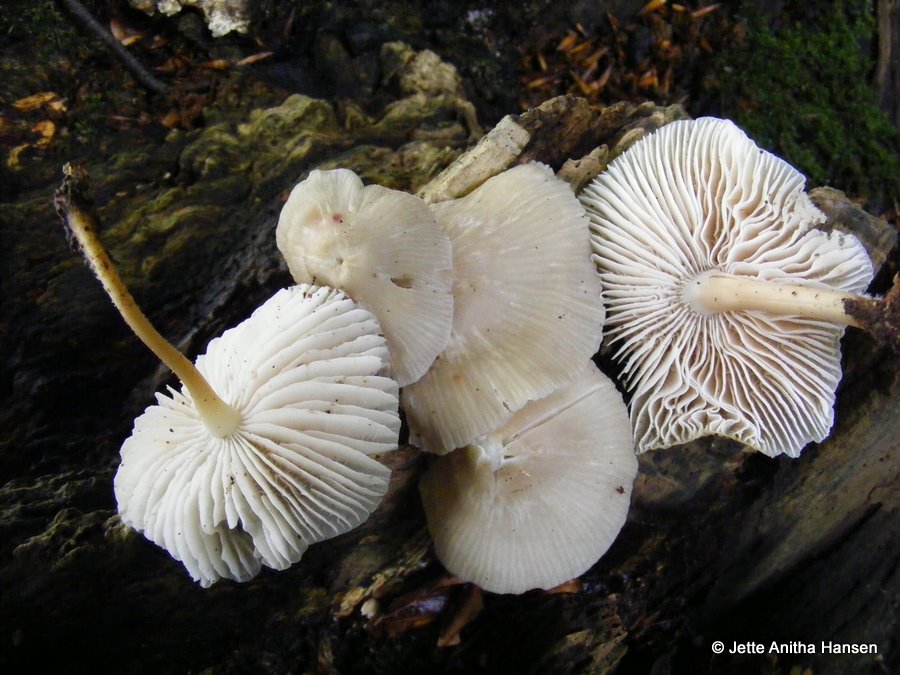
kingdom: Fungi
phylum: Basidiomycota
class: Agaricomycetes
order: Agaricales
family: Mycenaceae
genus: Mycena
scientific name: Mycena galericulata
